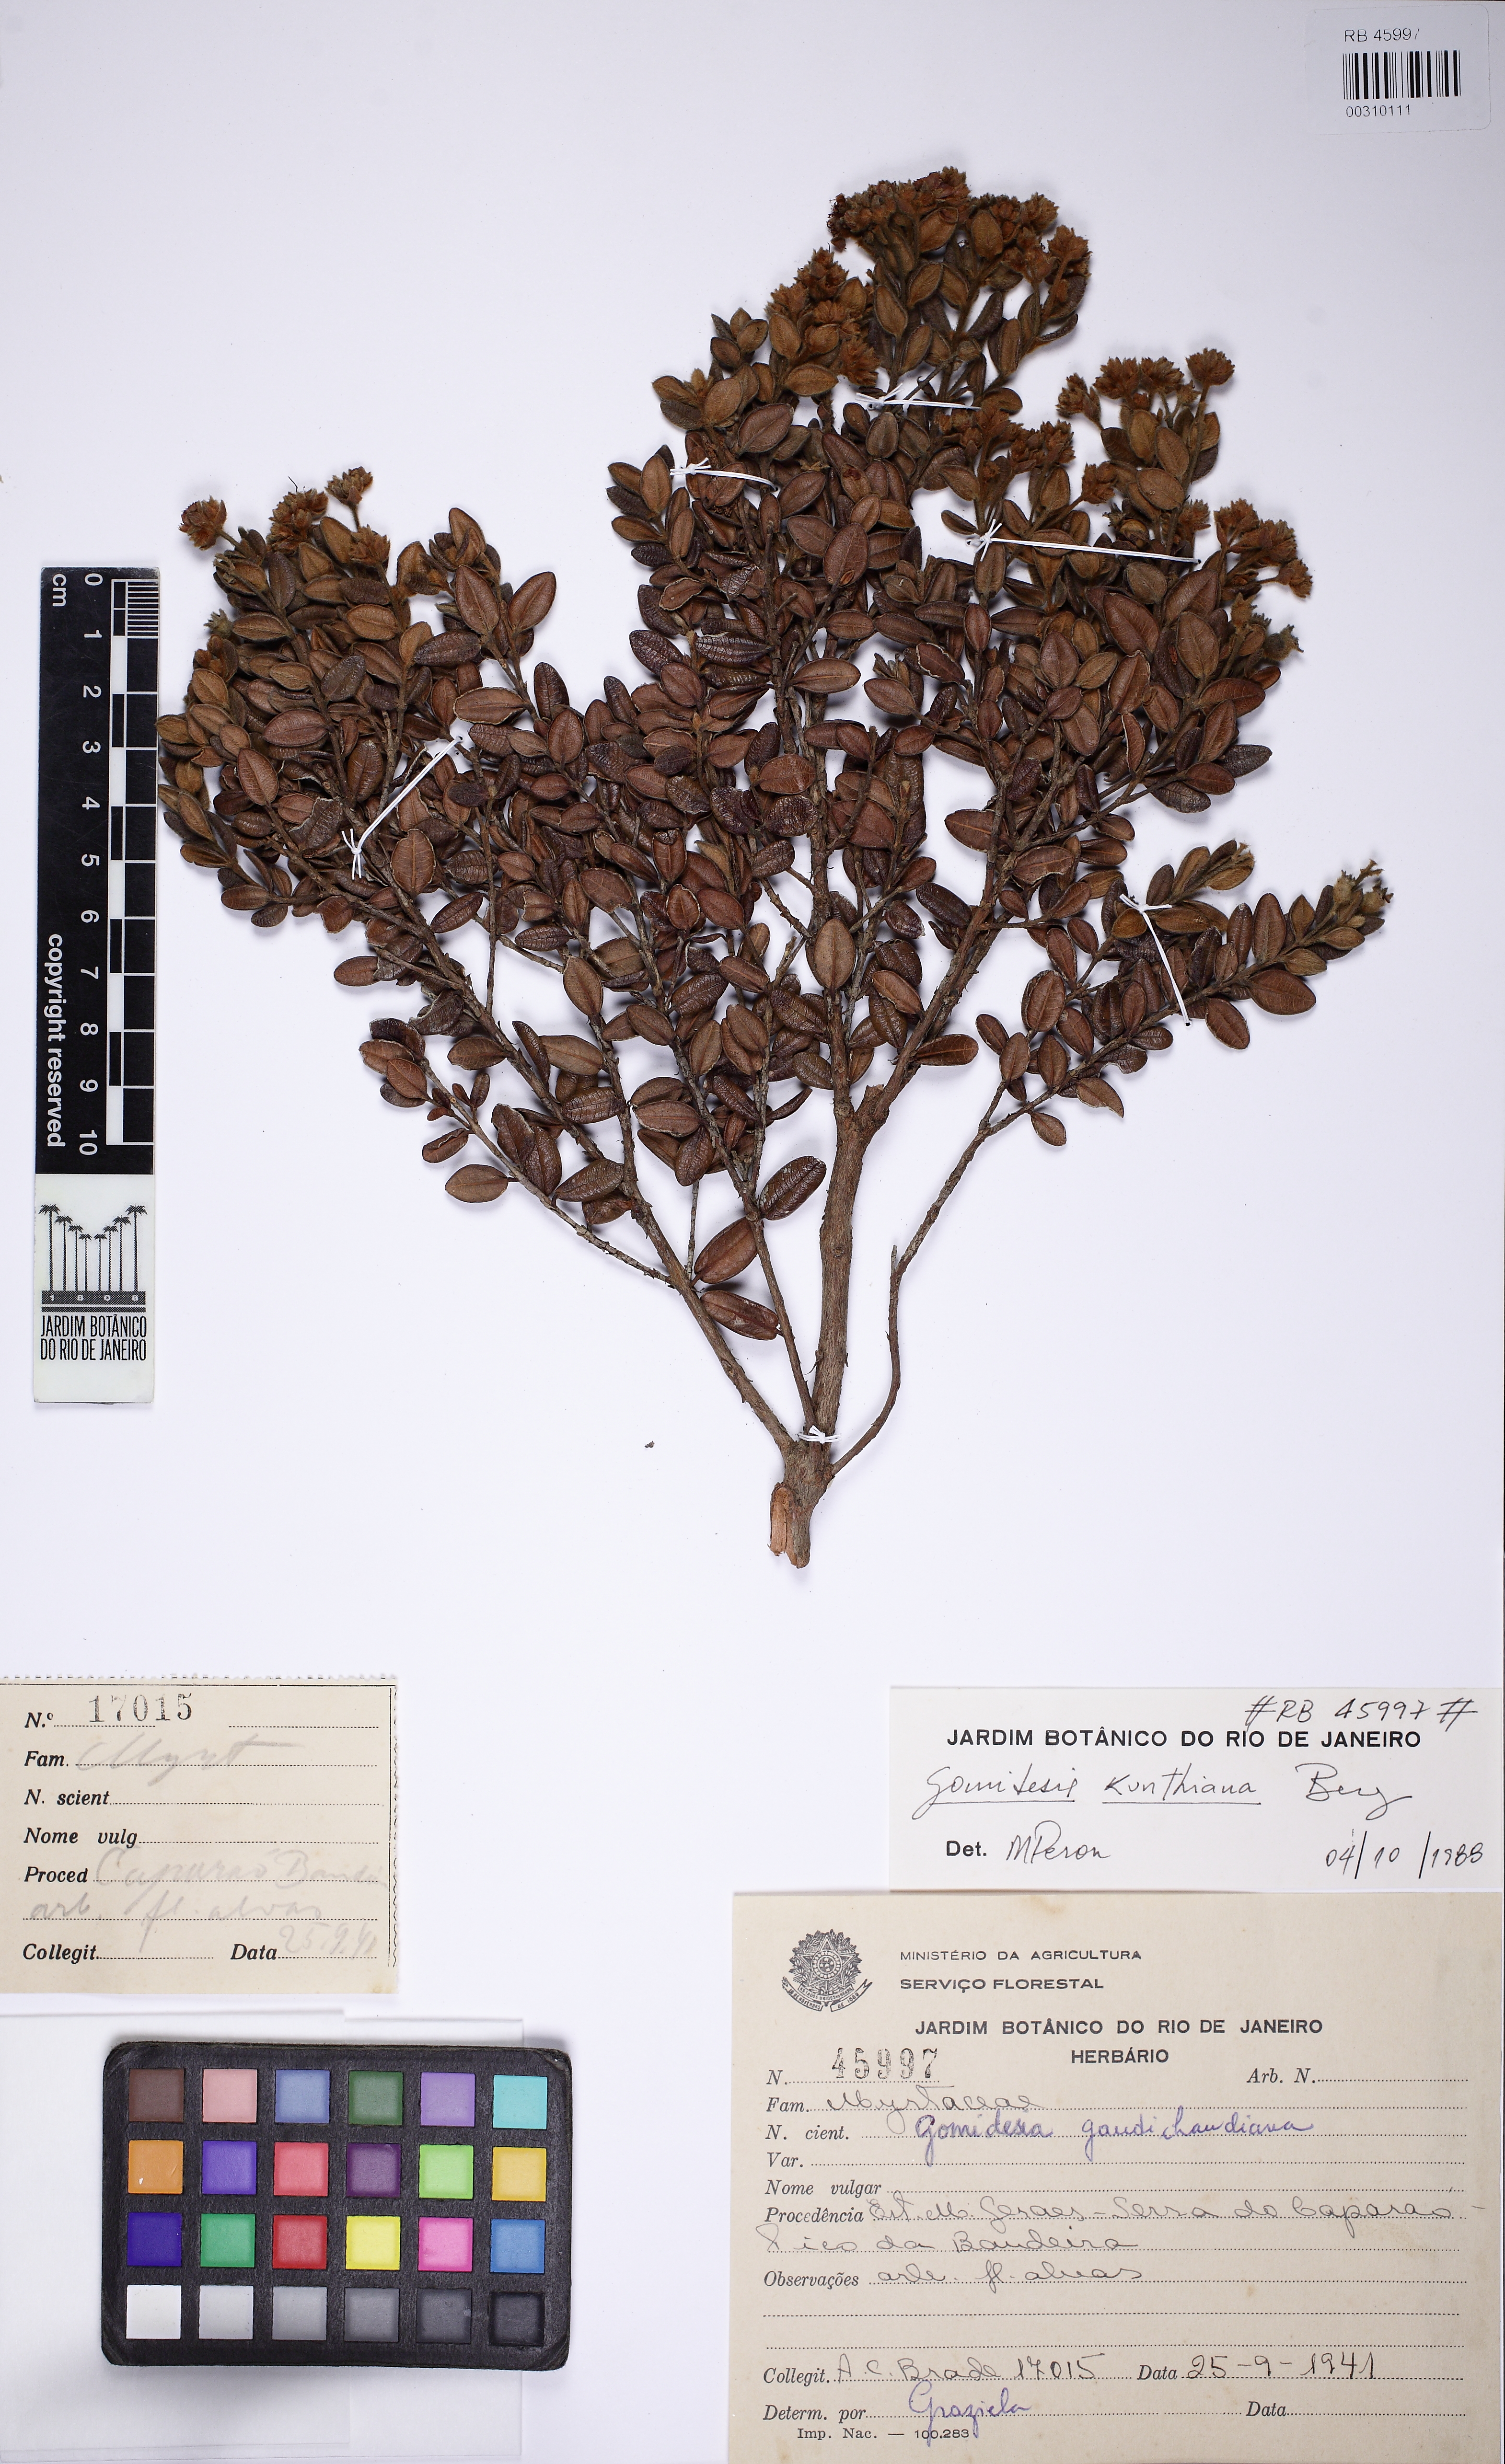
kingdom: Plantae
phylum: Tracheophyta
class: Magnoliopsida
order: Myrtales
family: Myrtaceae
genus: Myrcia
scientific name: Myrcia Gomidesia kunthiana
